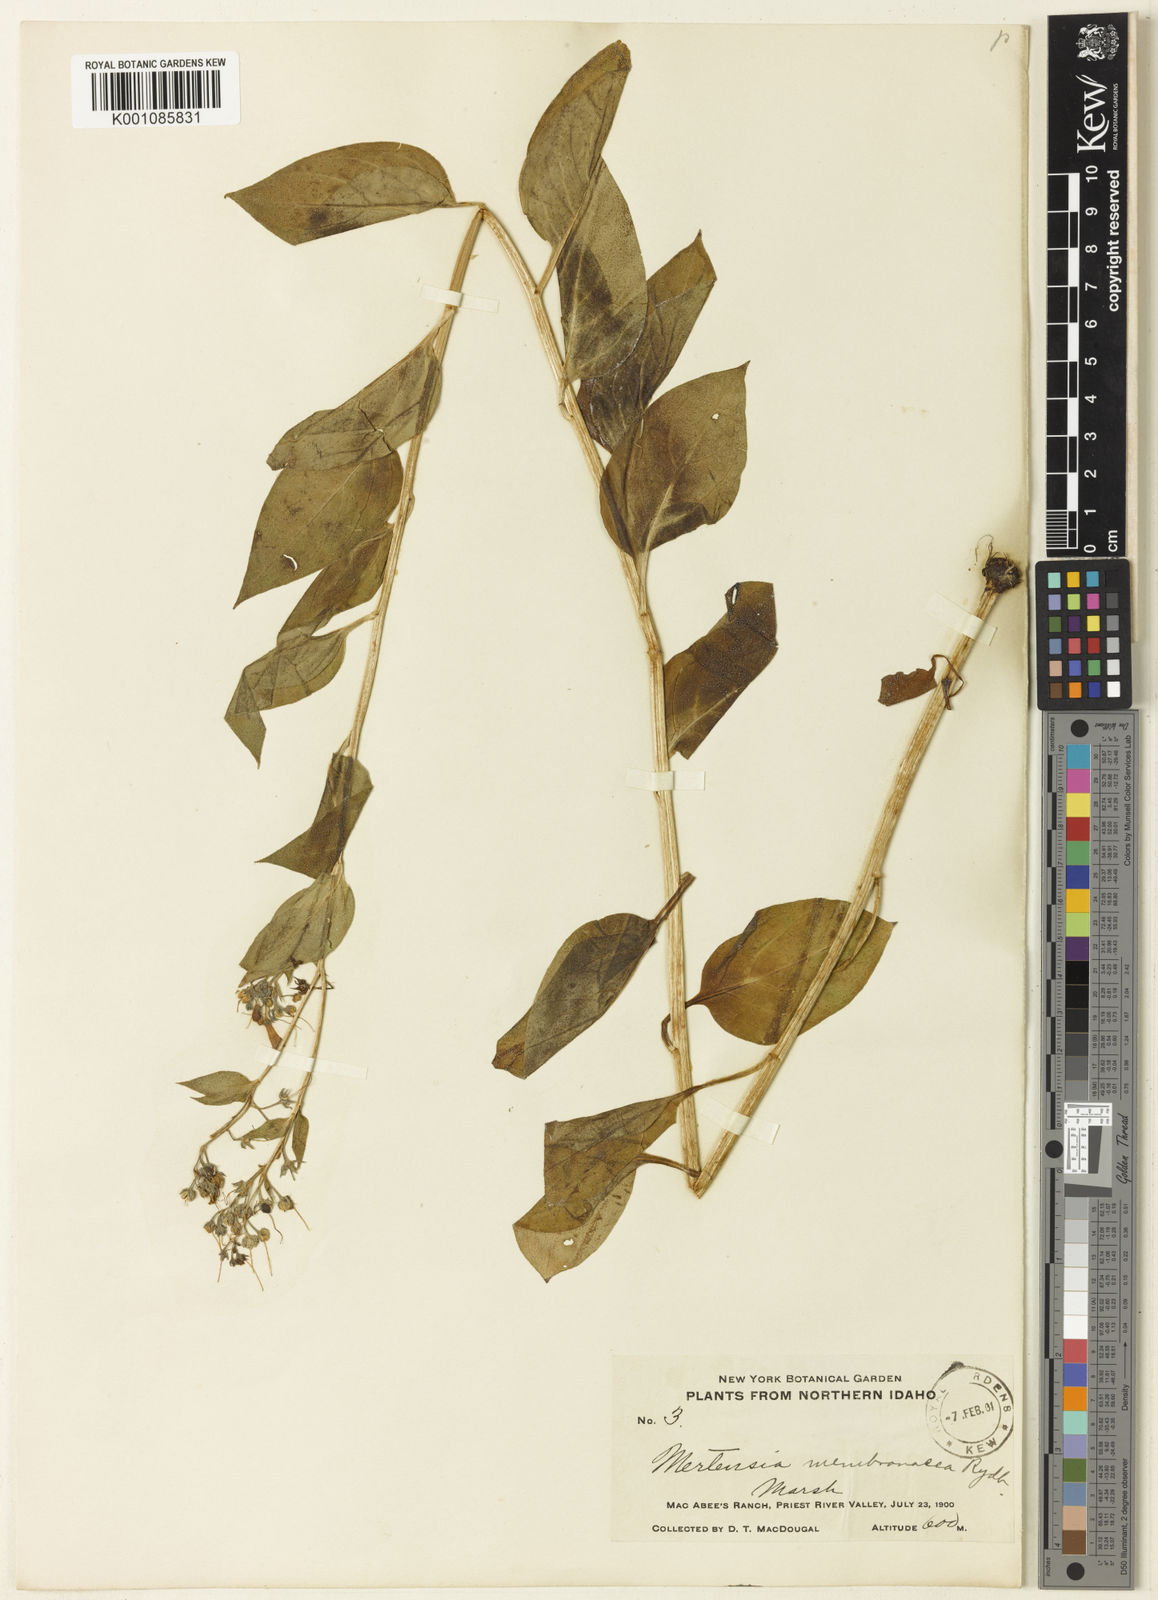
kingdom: Plantae
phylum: Tracheophyta
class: Magnoliopsida
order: Boraginales
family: Boraginaceae
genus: Mertensia
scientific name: Mertensia paniculata
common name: Panicled bluebells
